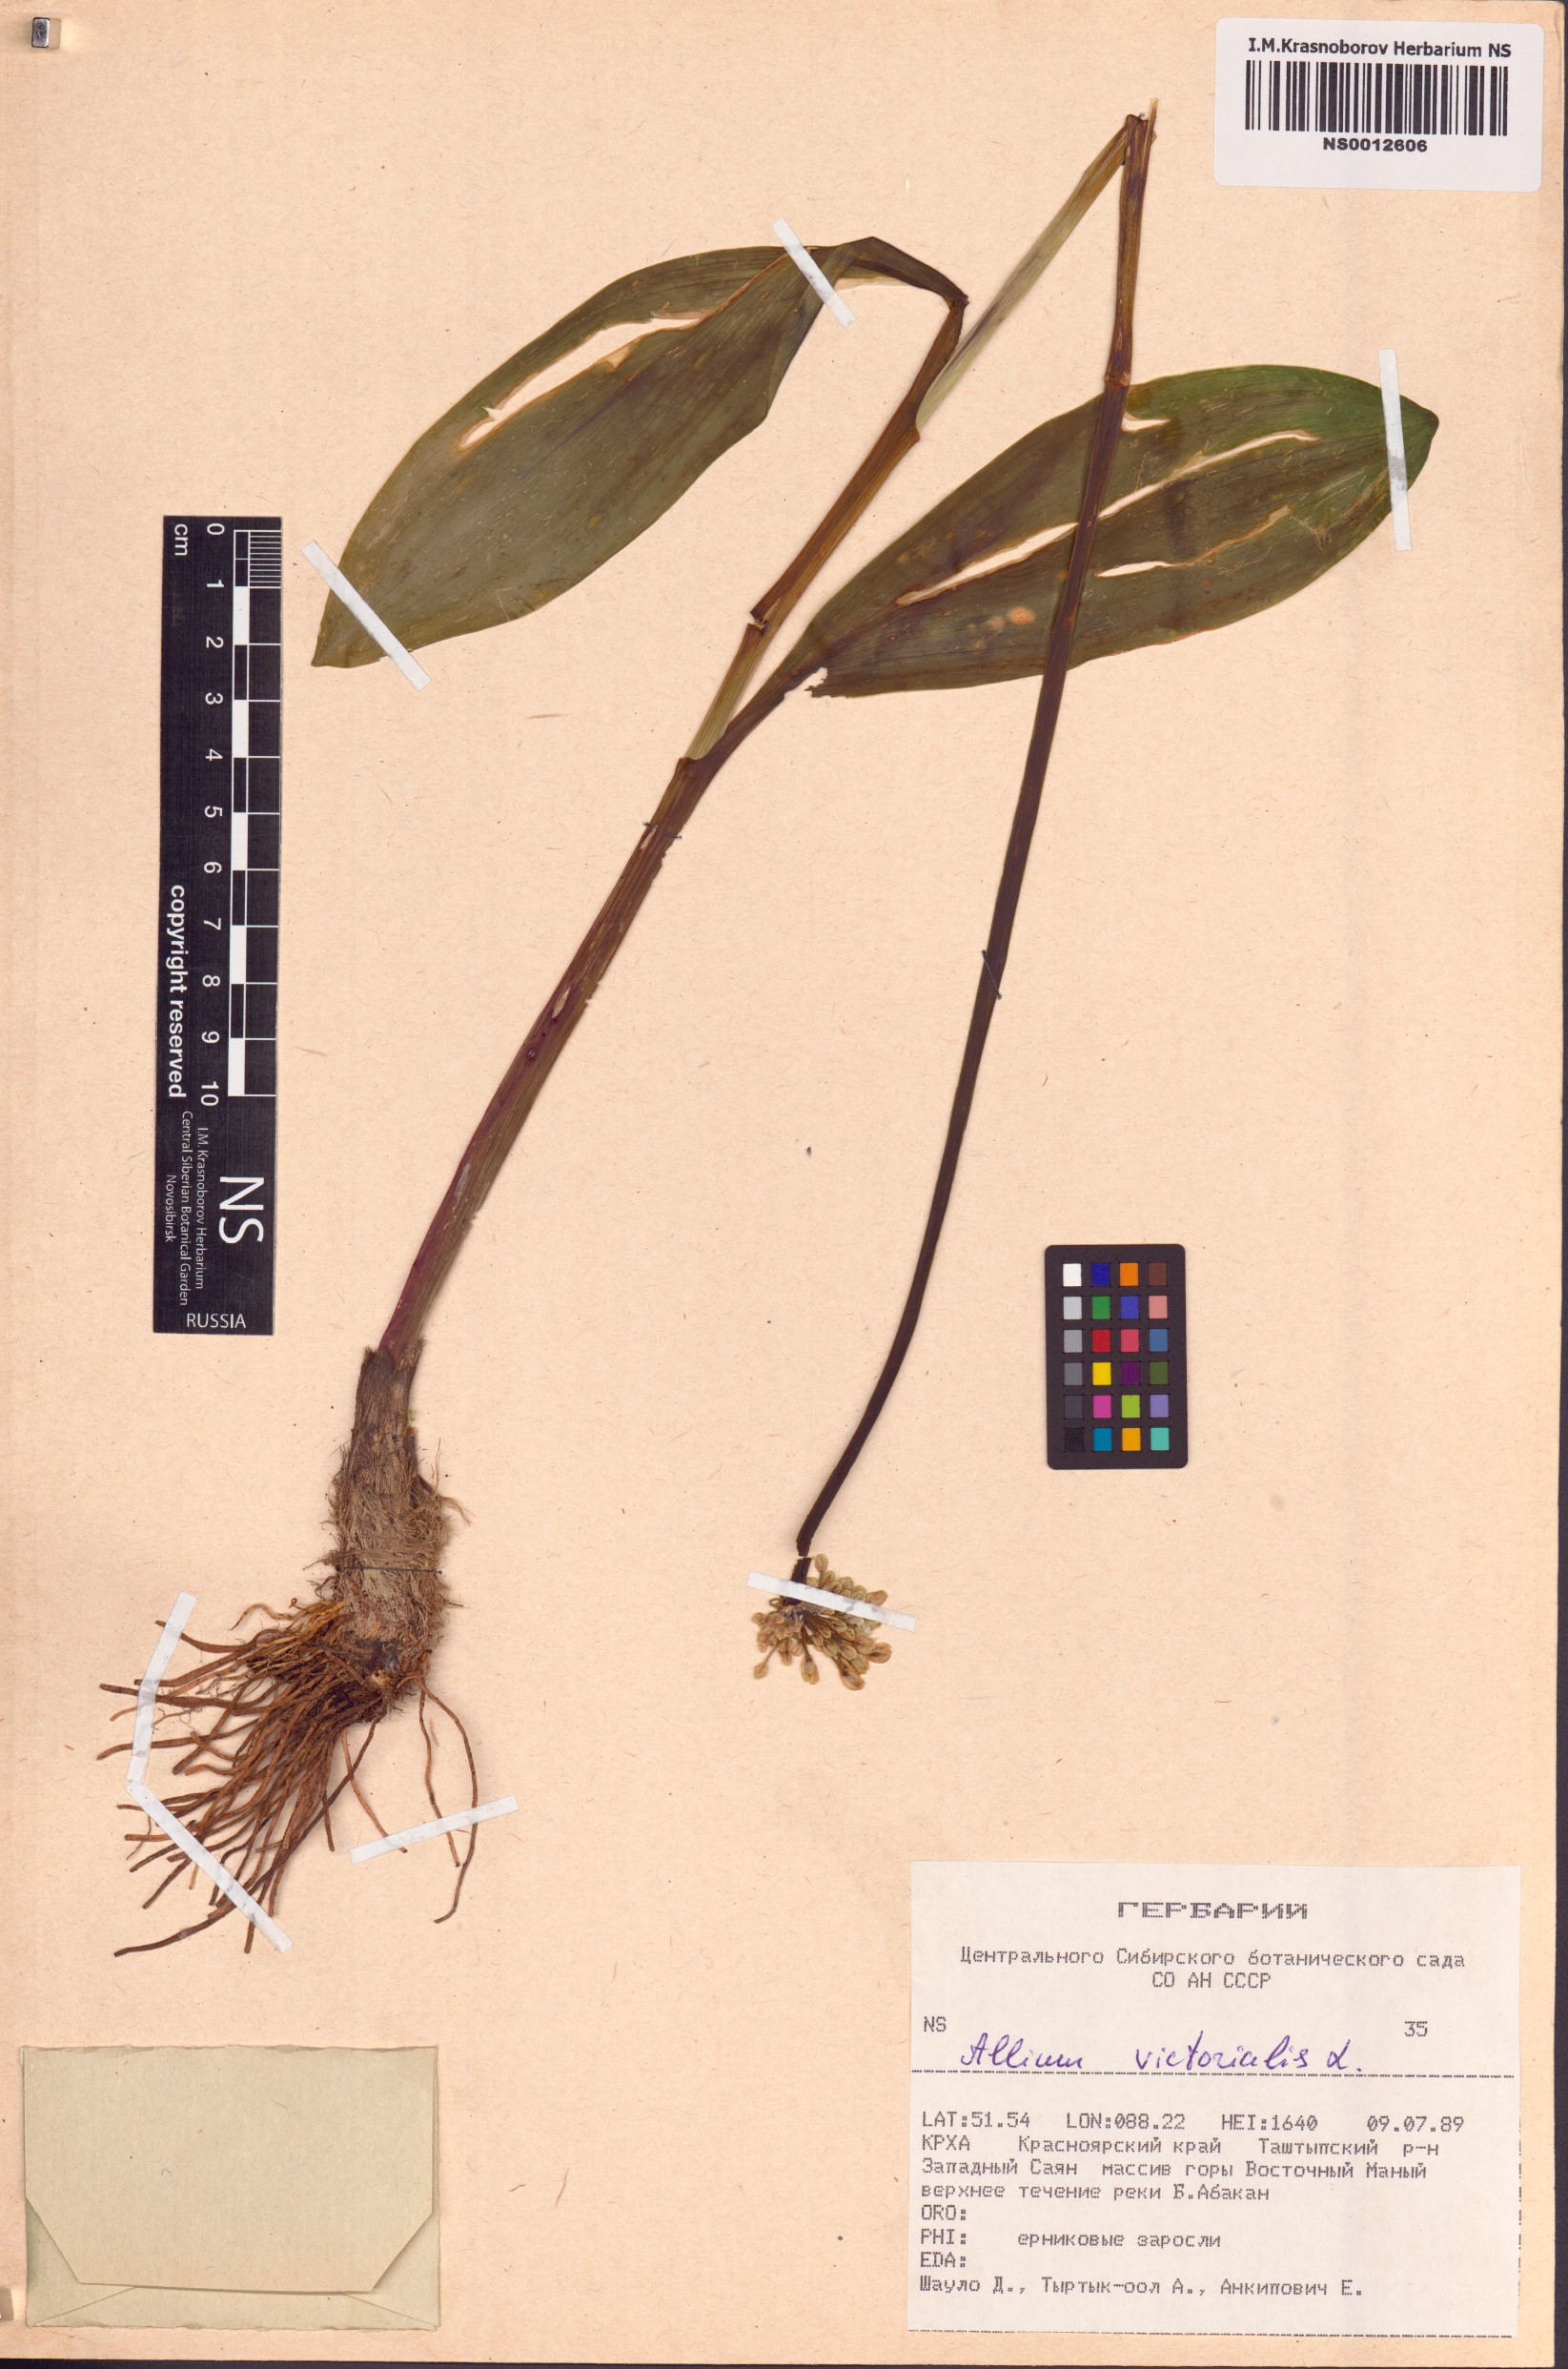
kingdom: Plantae
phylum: Tracheophyta
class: Liliopsida
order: Asparagales
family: Amaryllidaceae
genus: Allium
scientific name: Allium microdictyon
